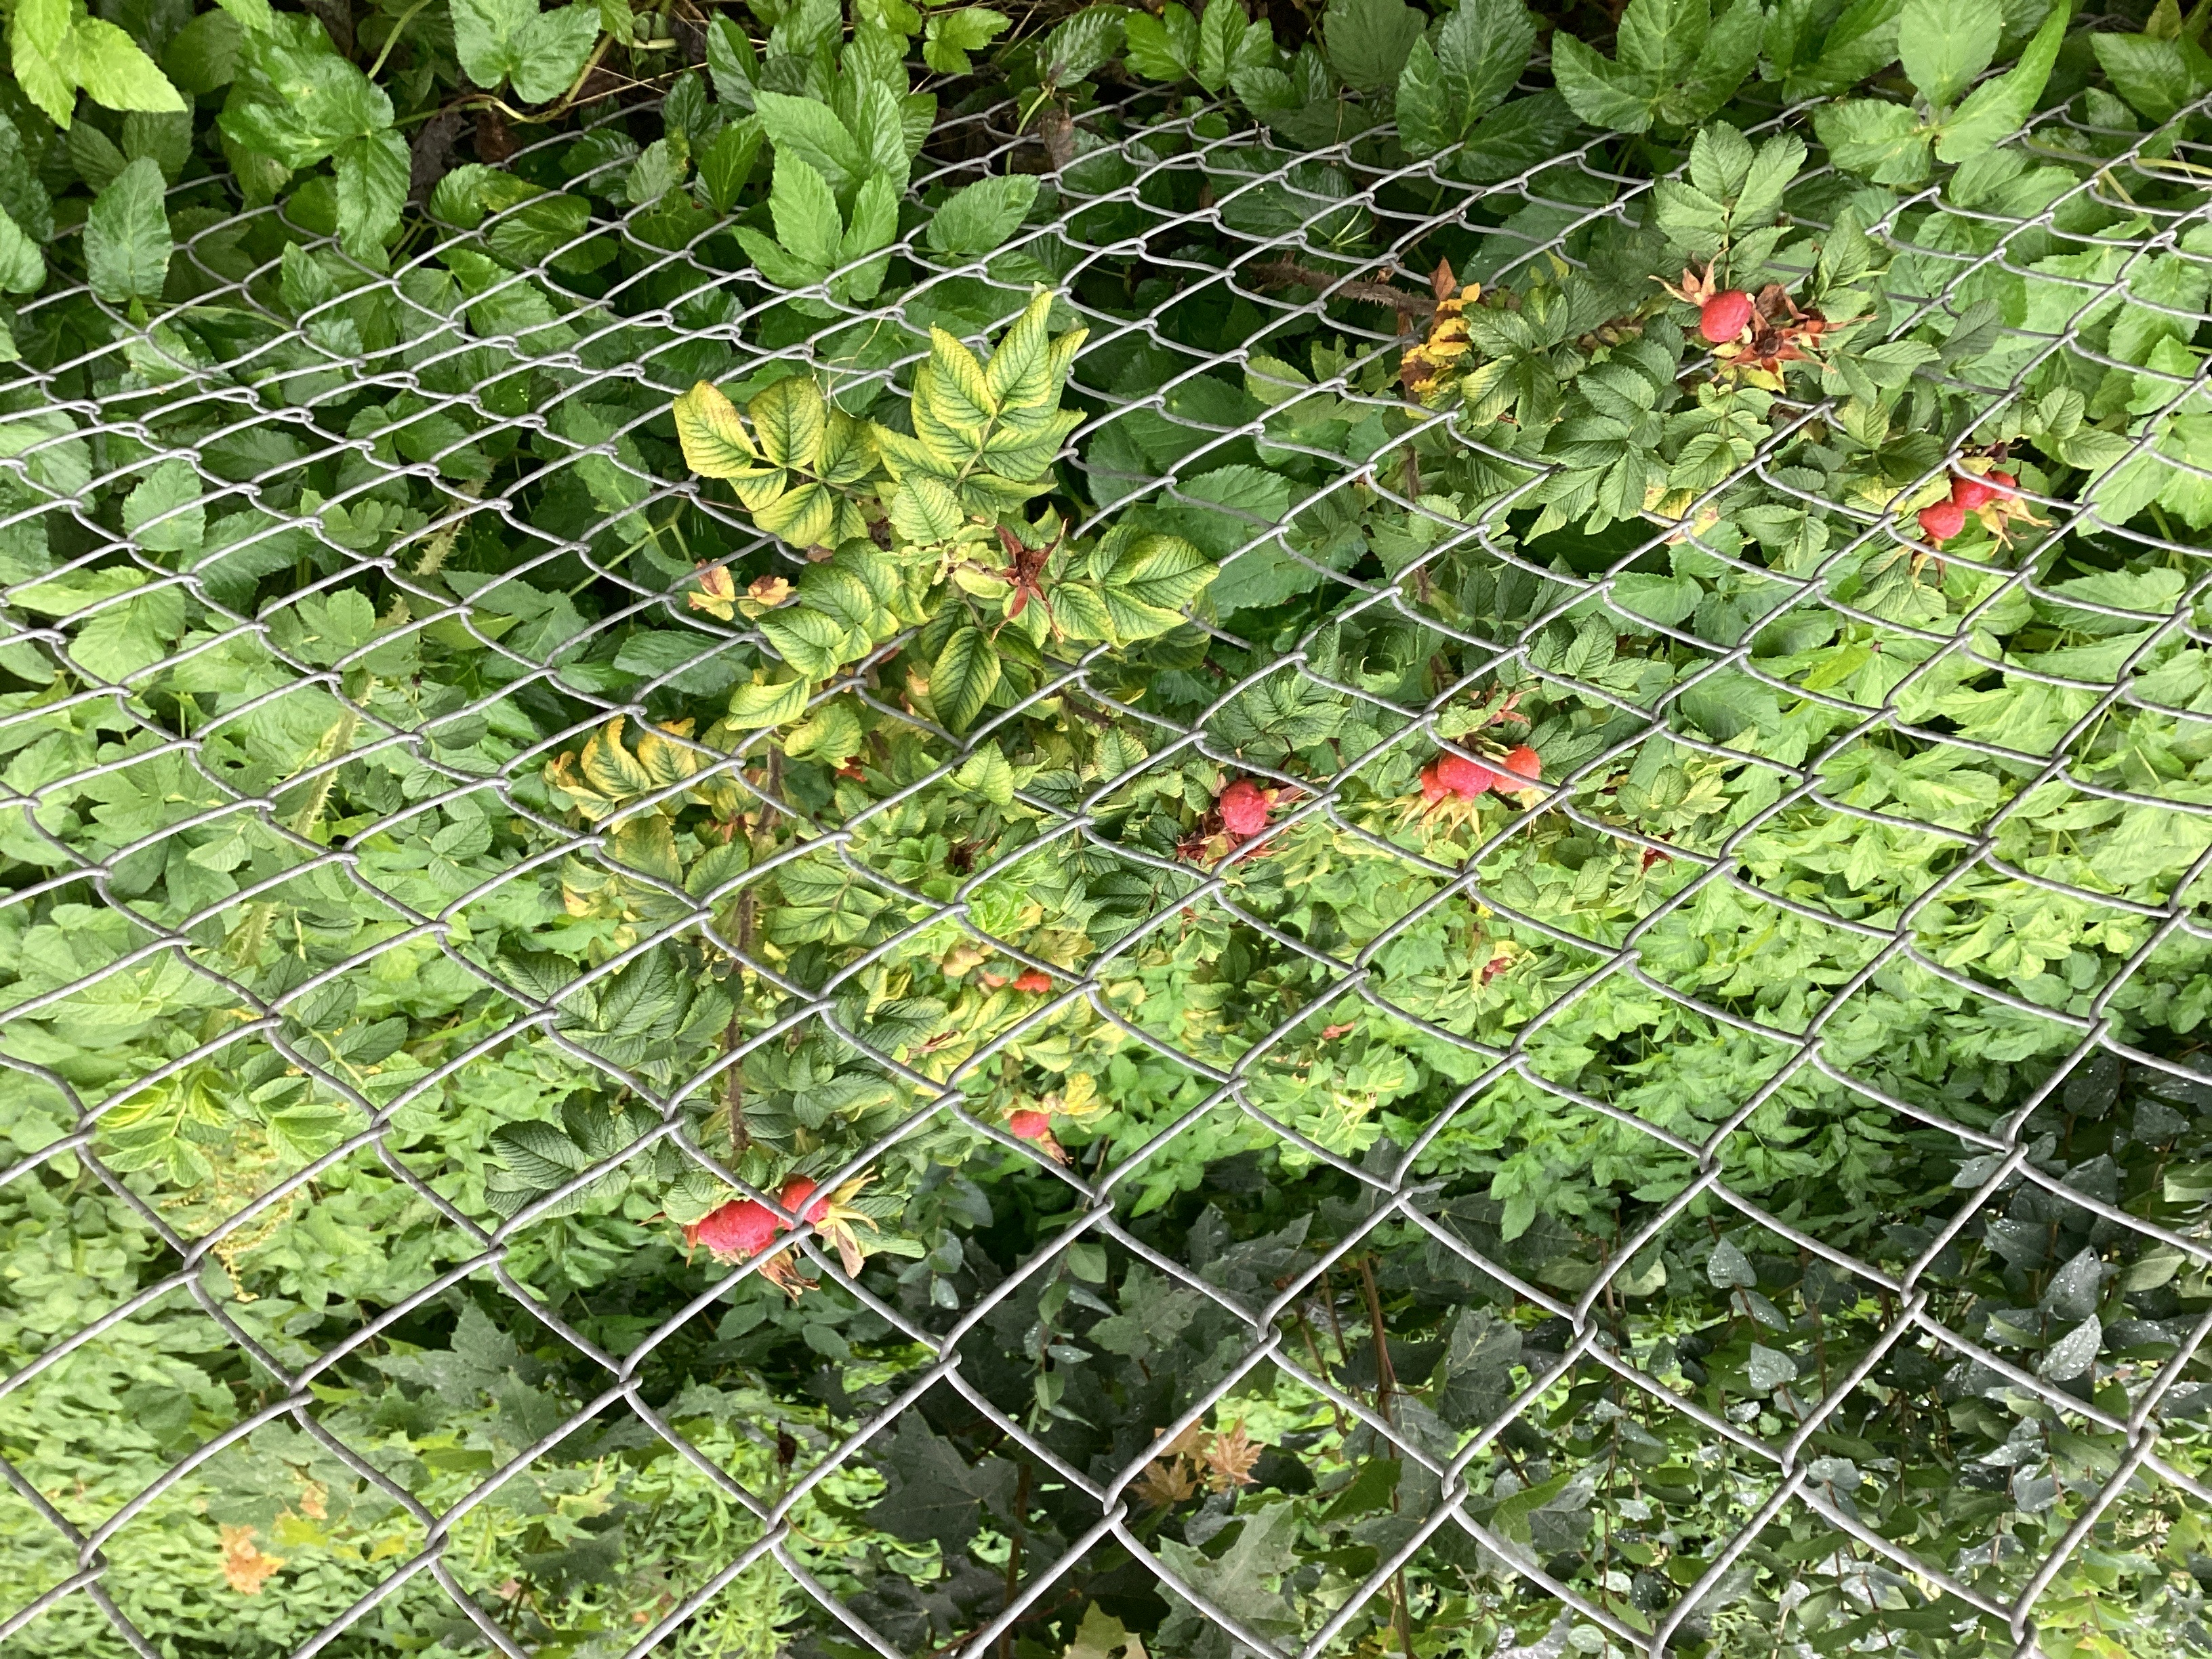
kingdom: Plantae
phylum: Tracheophyta
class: Magnoliopsida
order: Rosales
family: Rosaceae
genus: Rosa
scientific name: Rosa rugosa
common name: rynkerose
